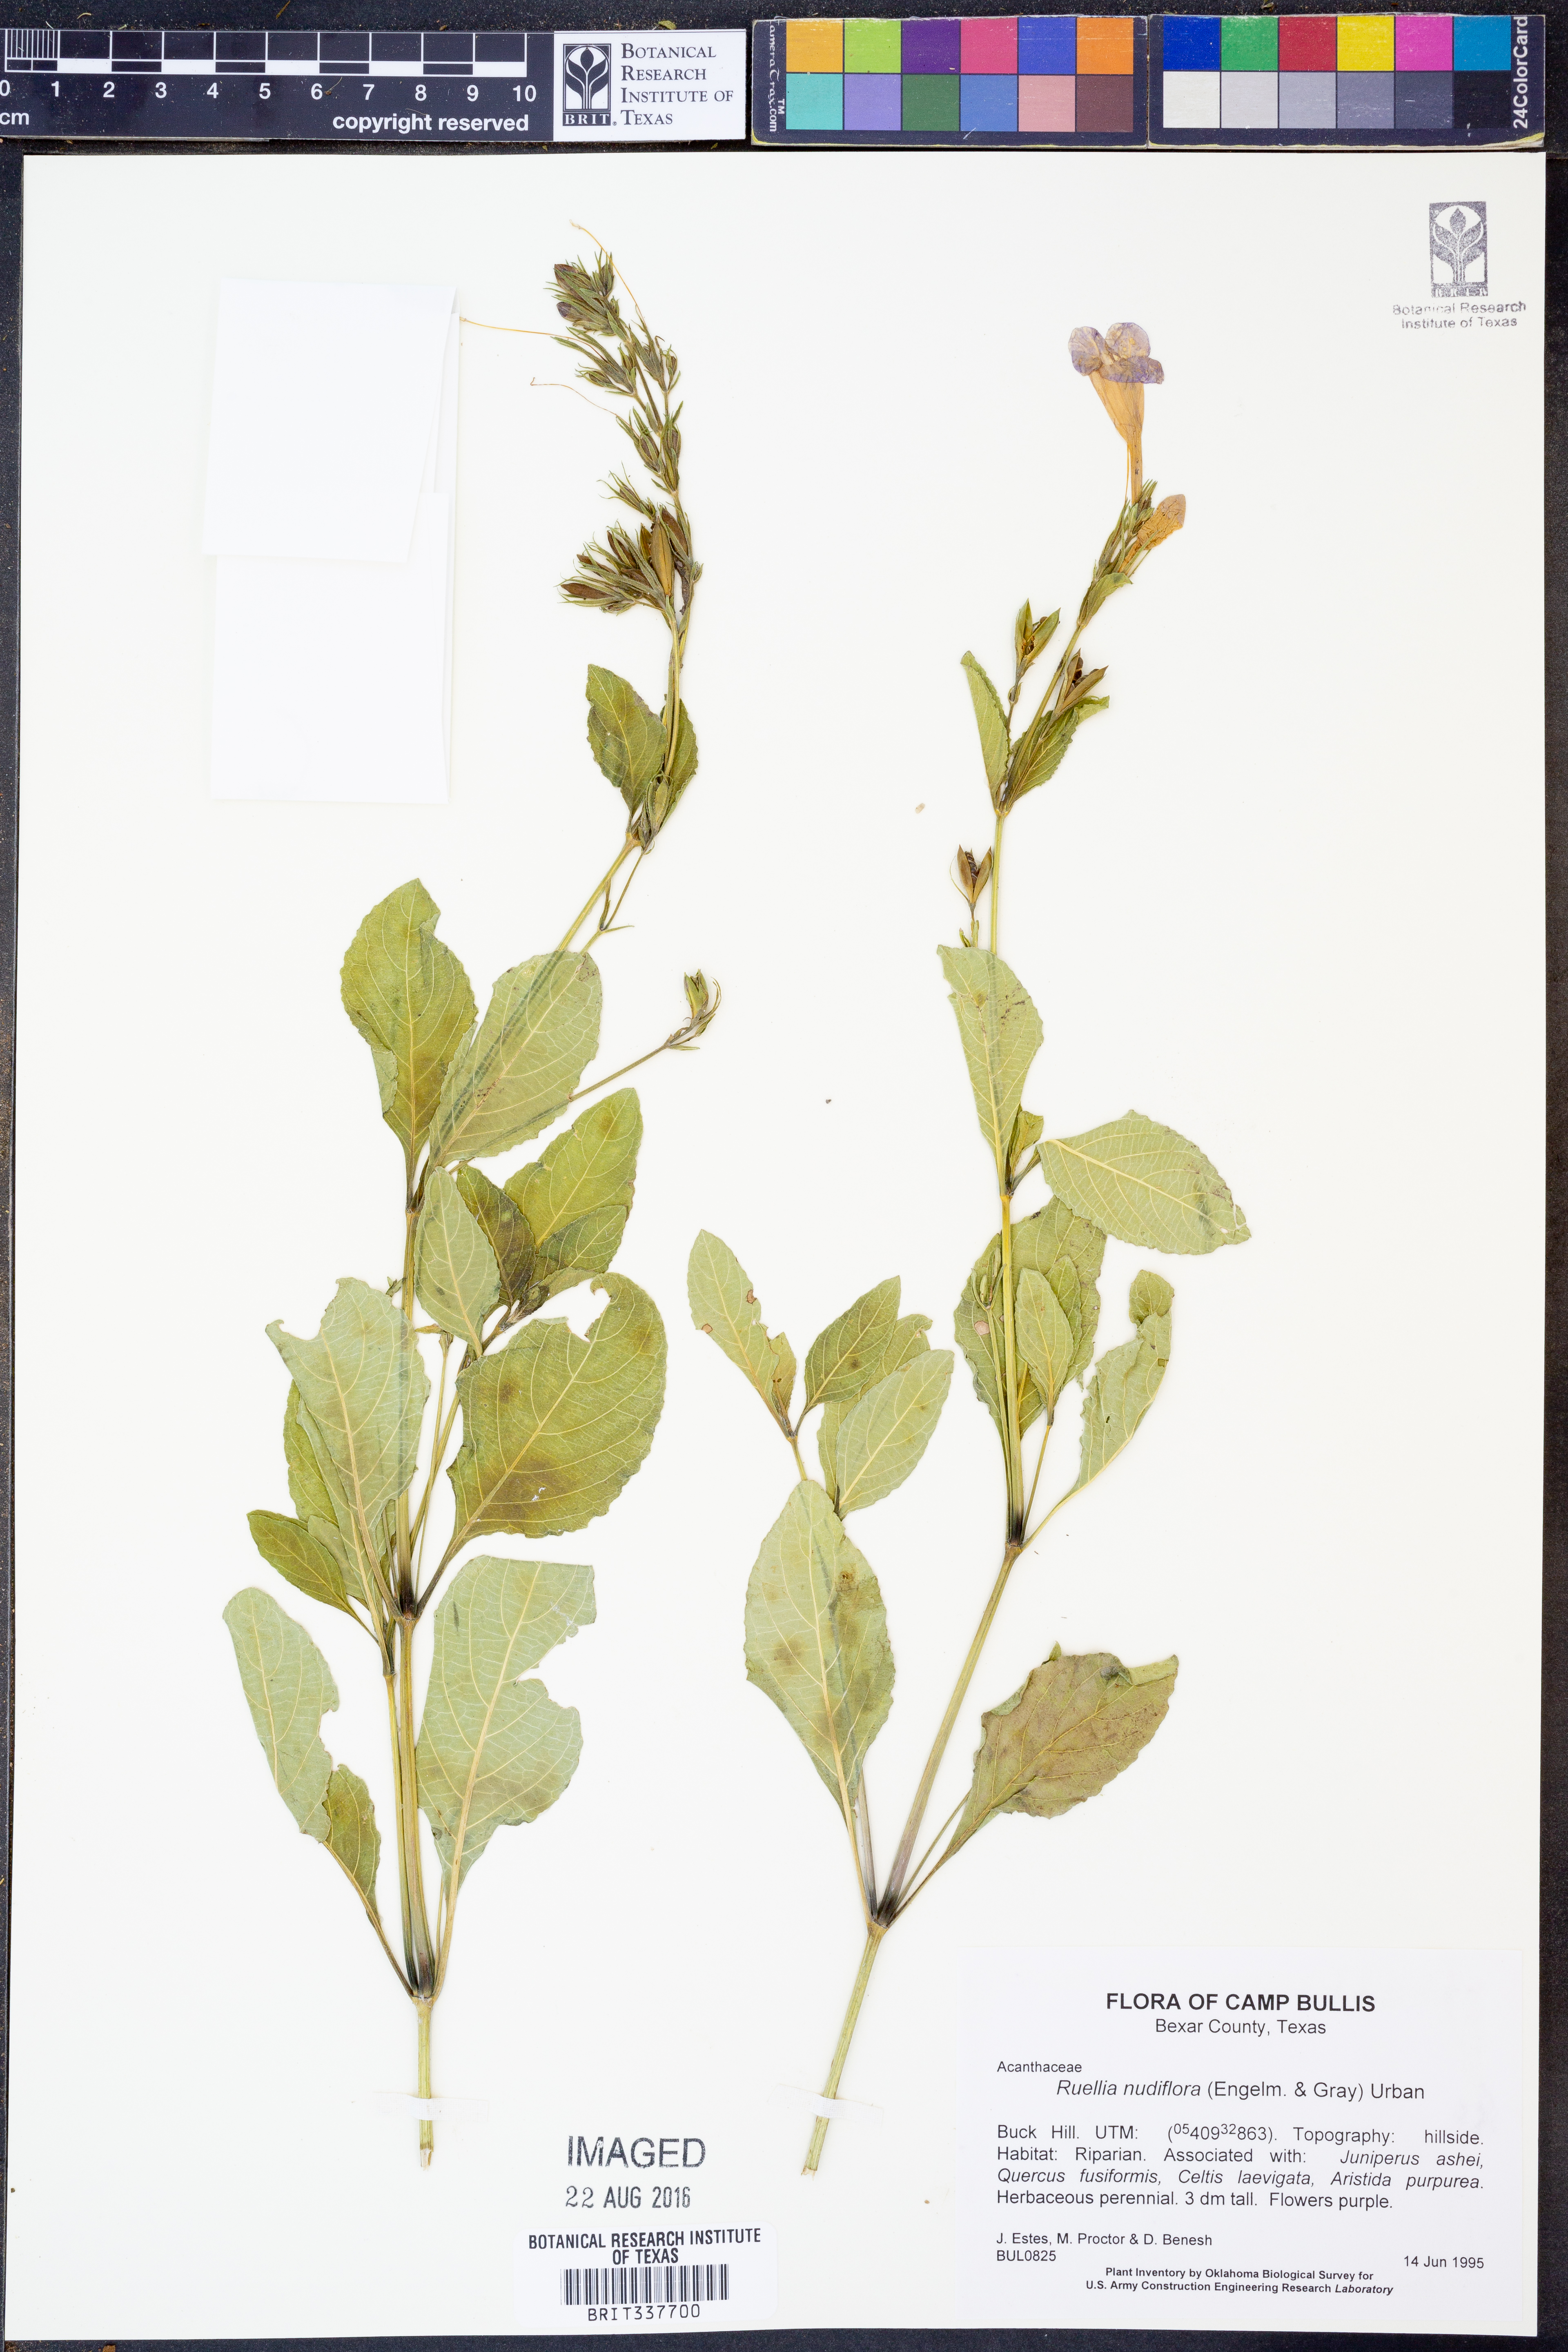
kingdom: Plantae
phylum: Tracheophyta
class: Magnoliopsida
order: Lamiales
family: Acanthaceae
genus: Ruellia
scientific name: Ruellia ciliatiflora
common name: Hairyflower wild petunia
